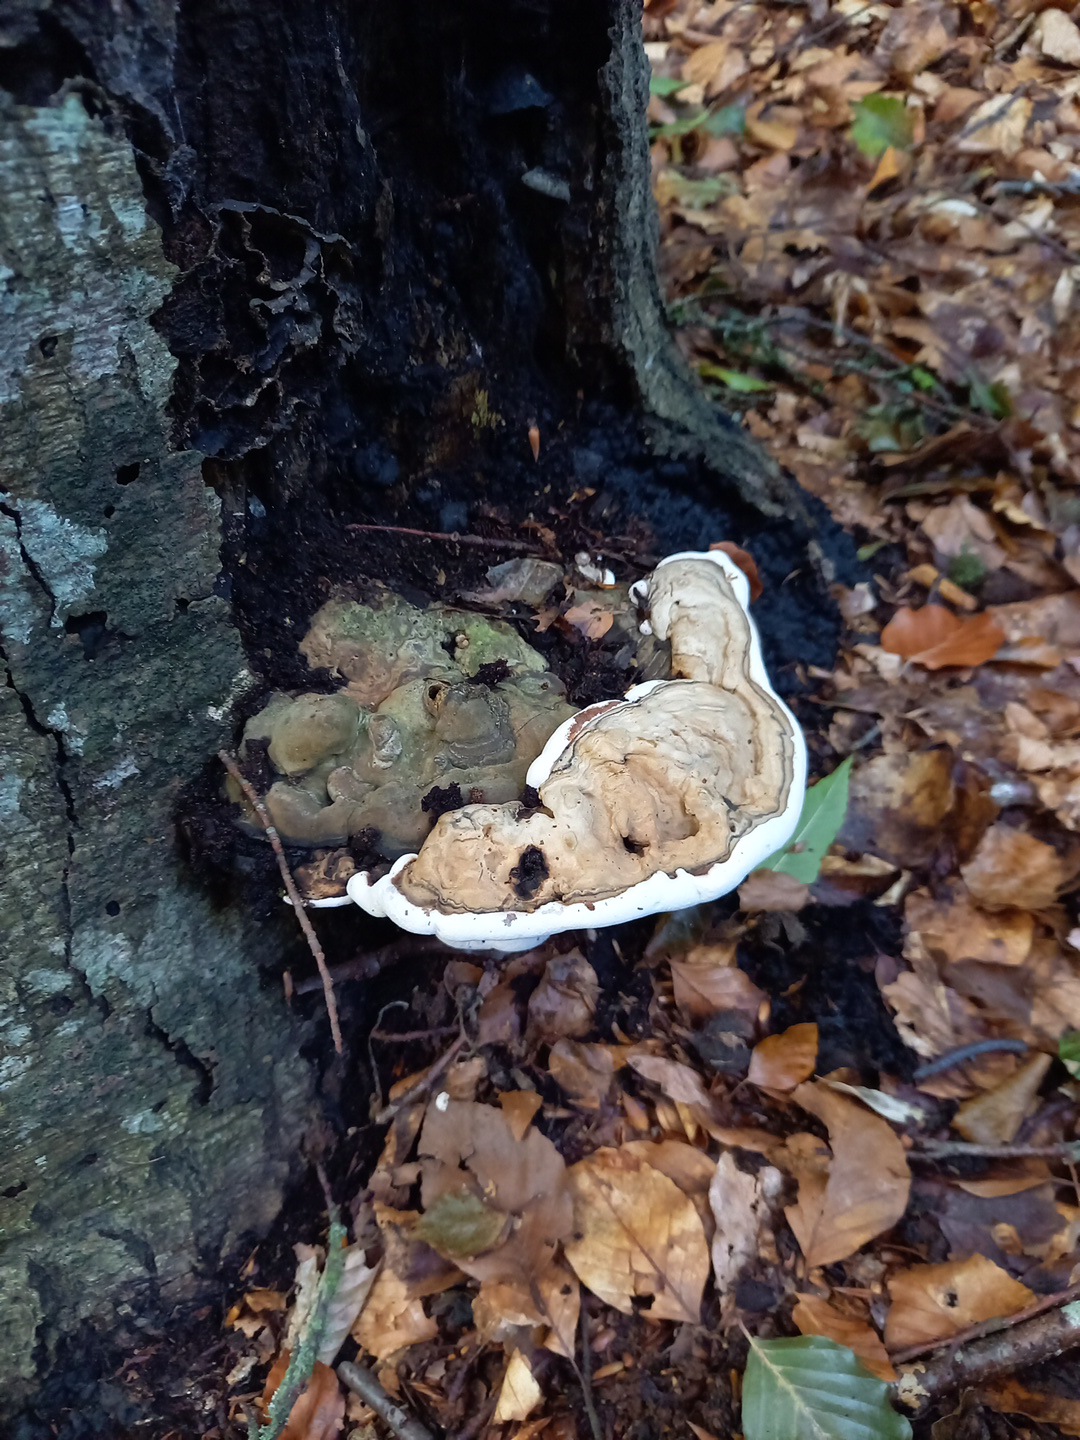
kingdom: Fungi
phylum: Basidiomycota
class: Agaricomycetes
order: Polyporales
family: Polyporaceae
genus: Ganoderma
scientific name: Ganoderma applanatum
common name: flad lakporesvamp
